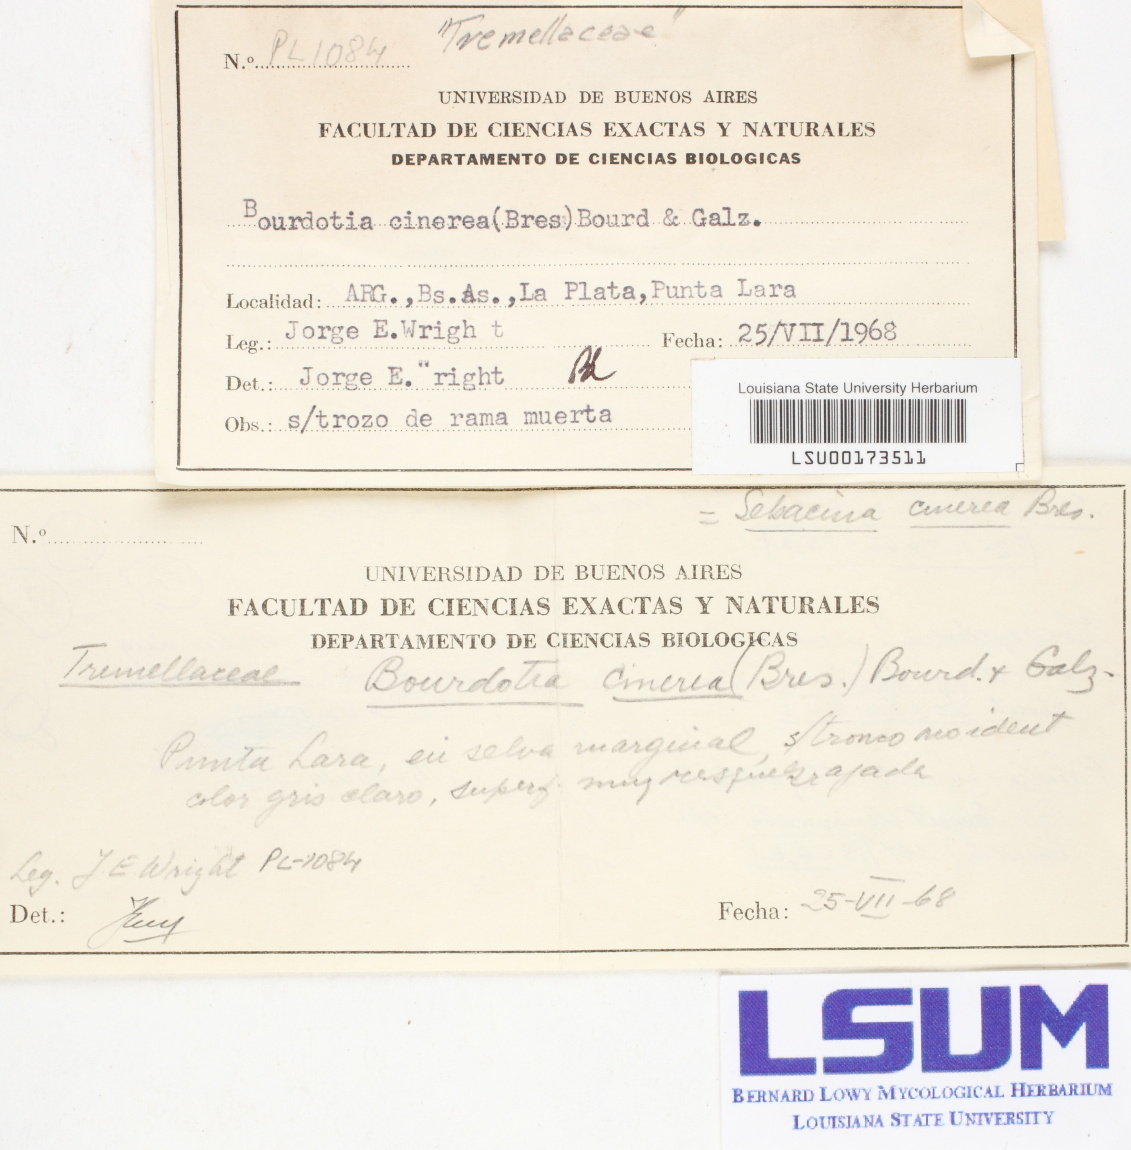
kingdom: Fungi
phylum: Basidiomycota
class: Agaricomycetes
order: Auriculariales
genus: Basidiodendron
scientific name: Basidiodendron cinereum
